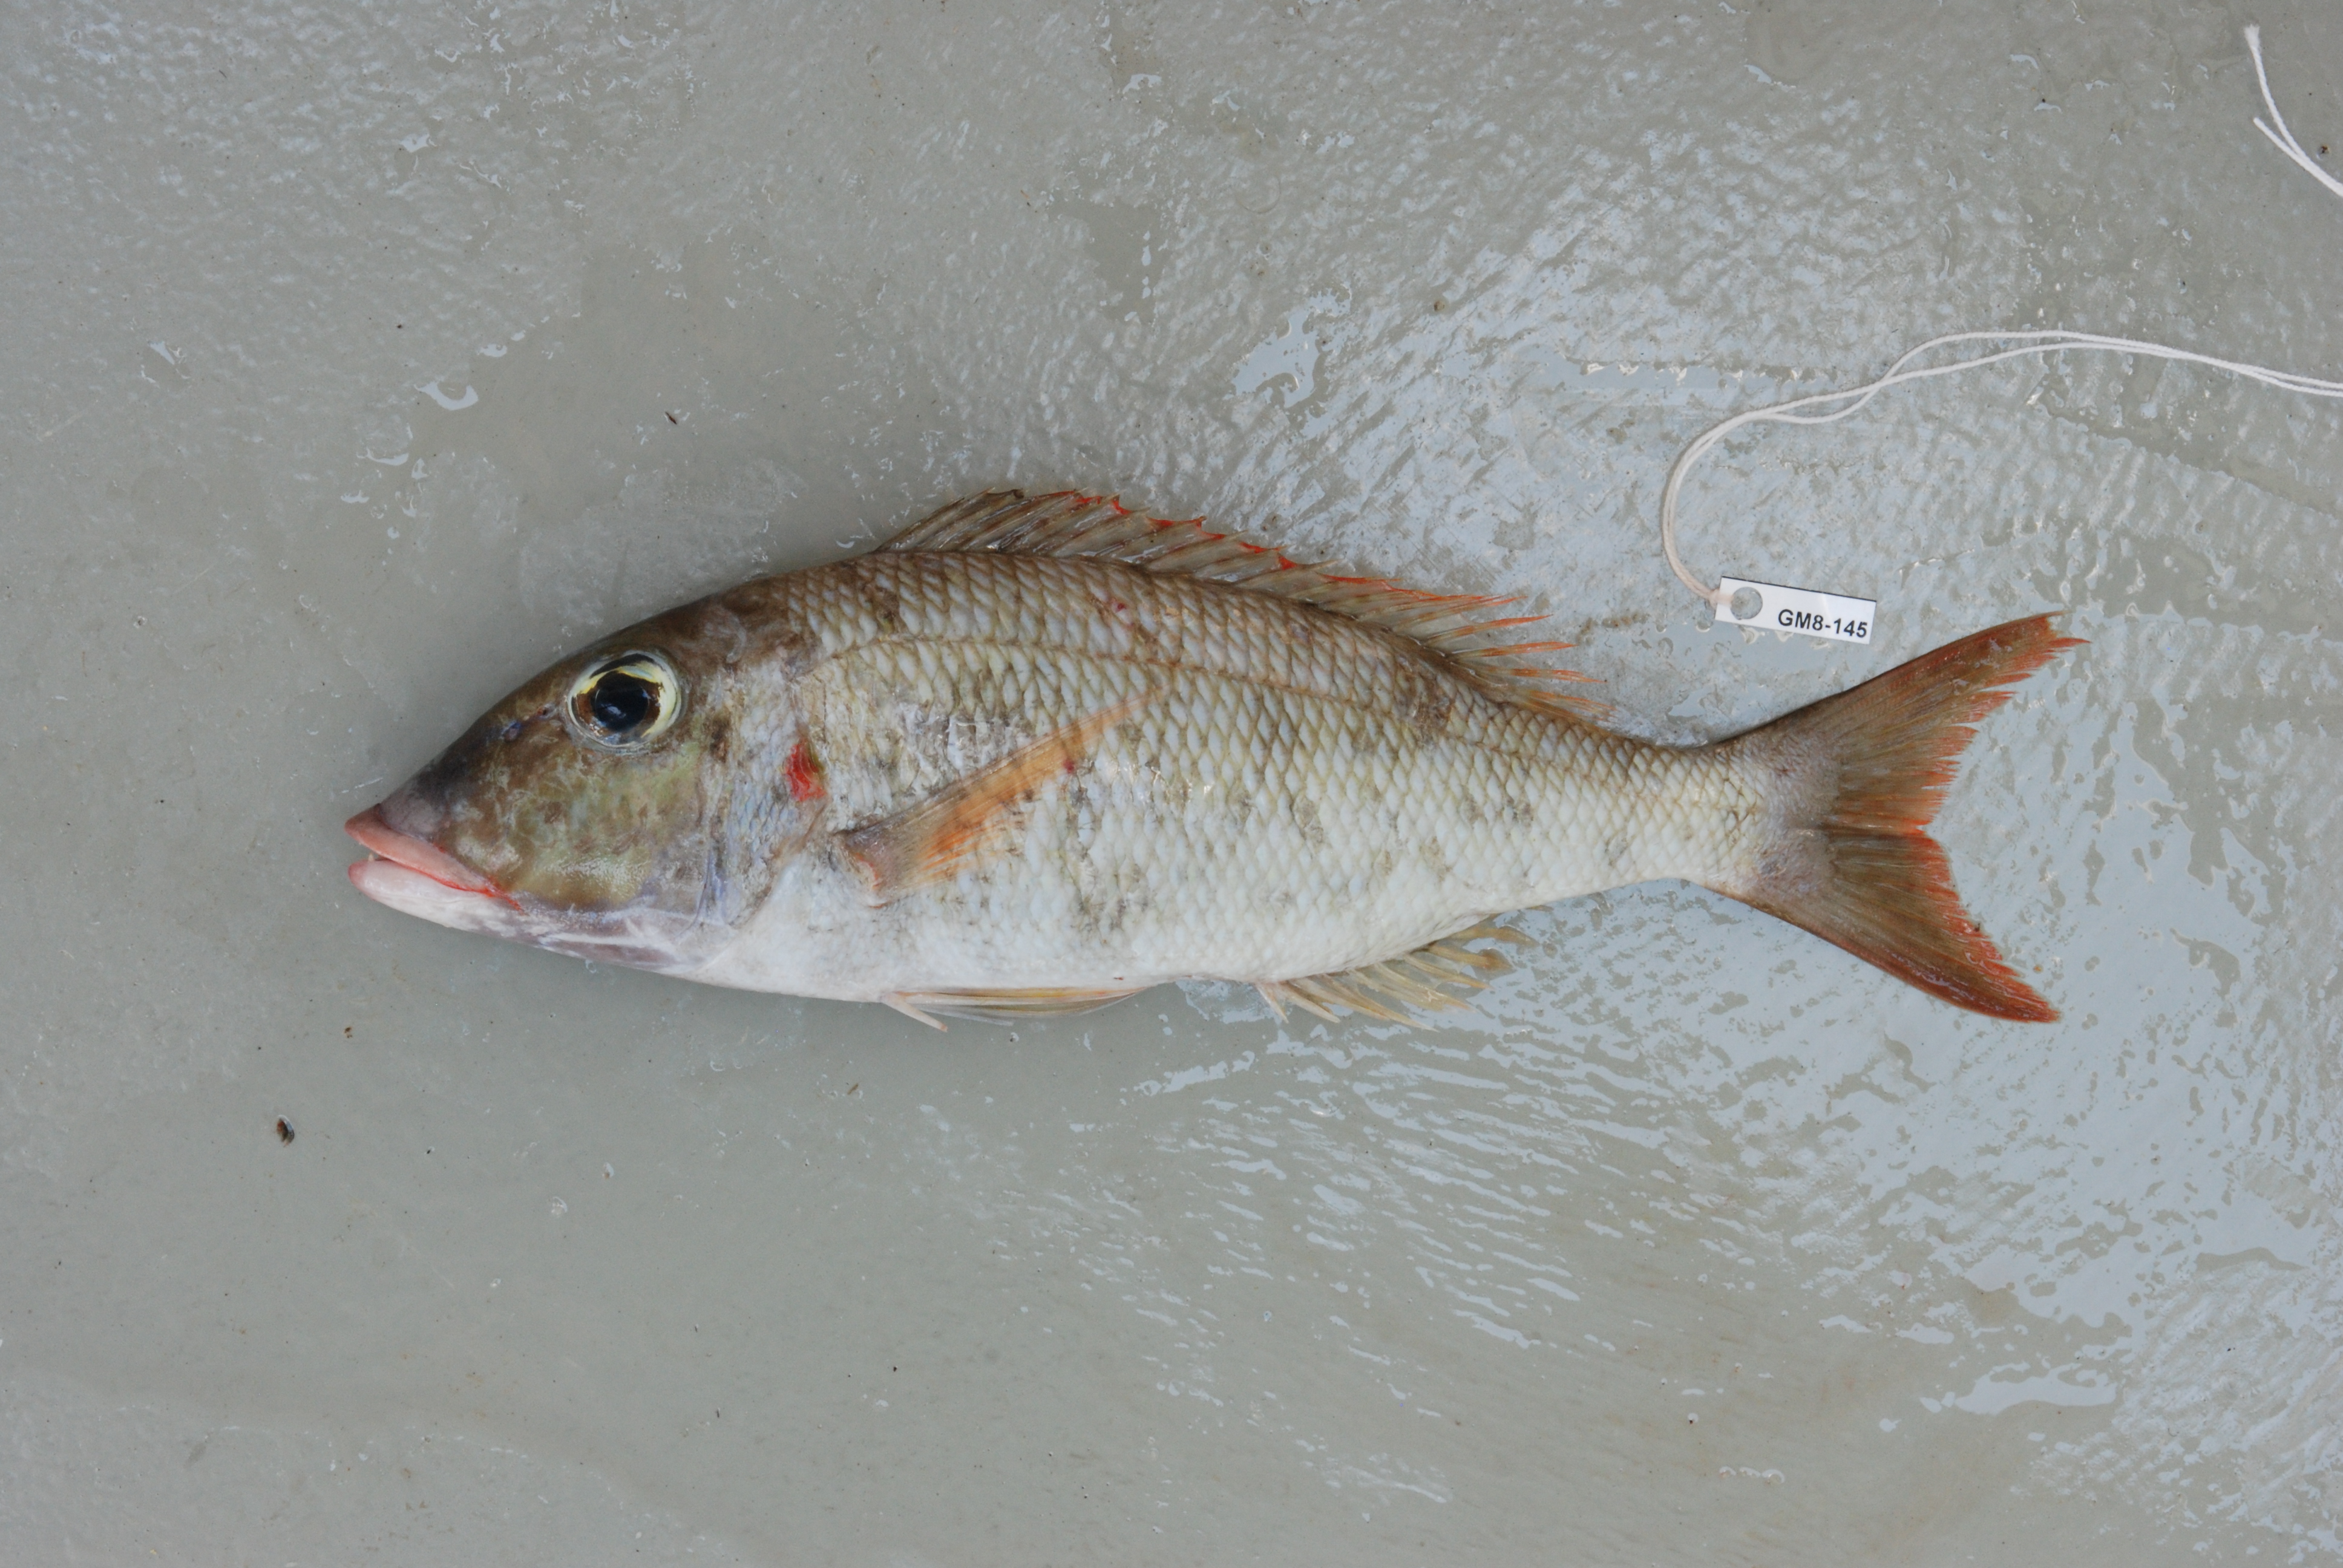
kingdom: Animalia
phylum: Chordata
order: Perciformes
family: Lethrinidae
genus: Lethrinus
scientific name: Lethrinus rubrioperculatus
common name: Spotcheek emperor
